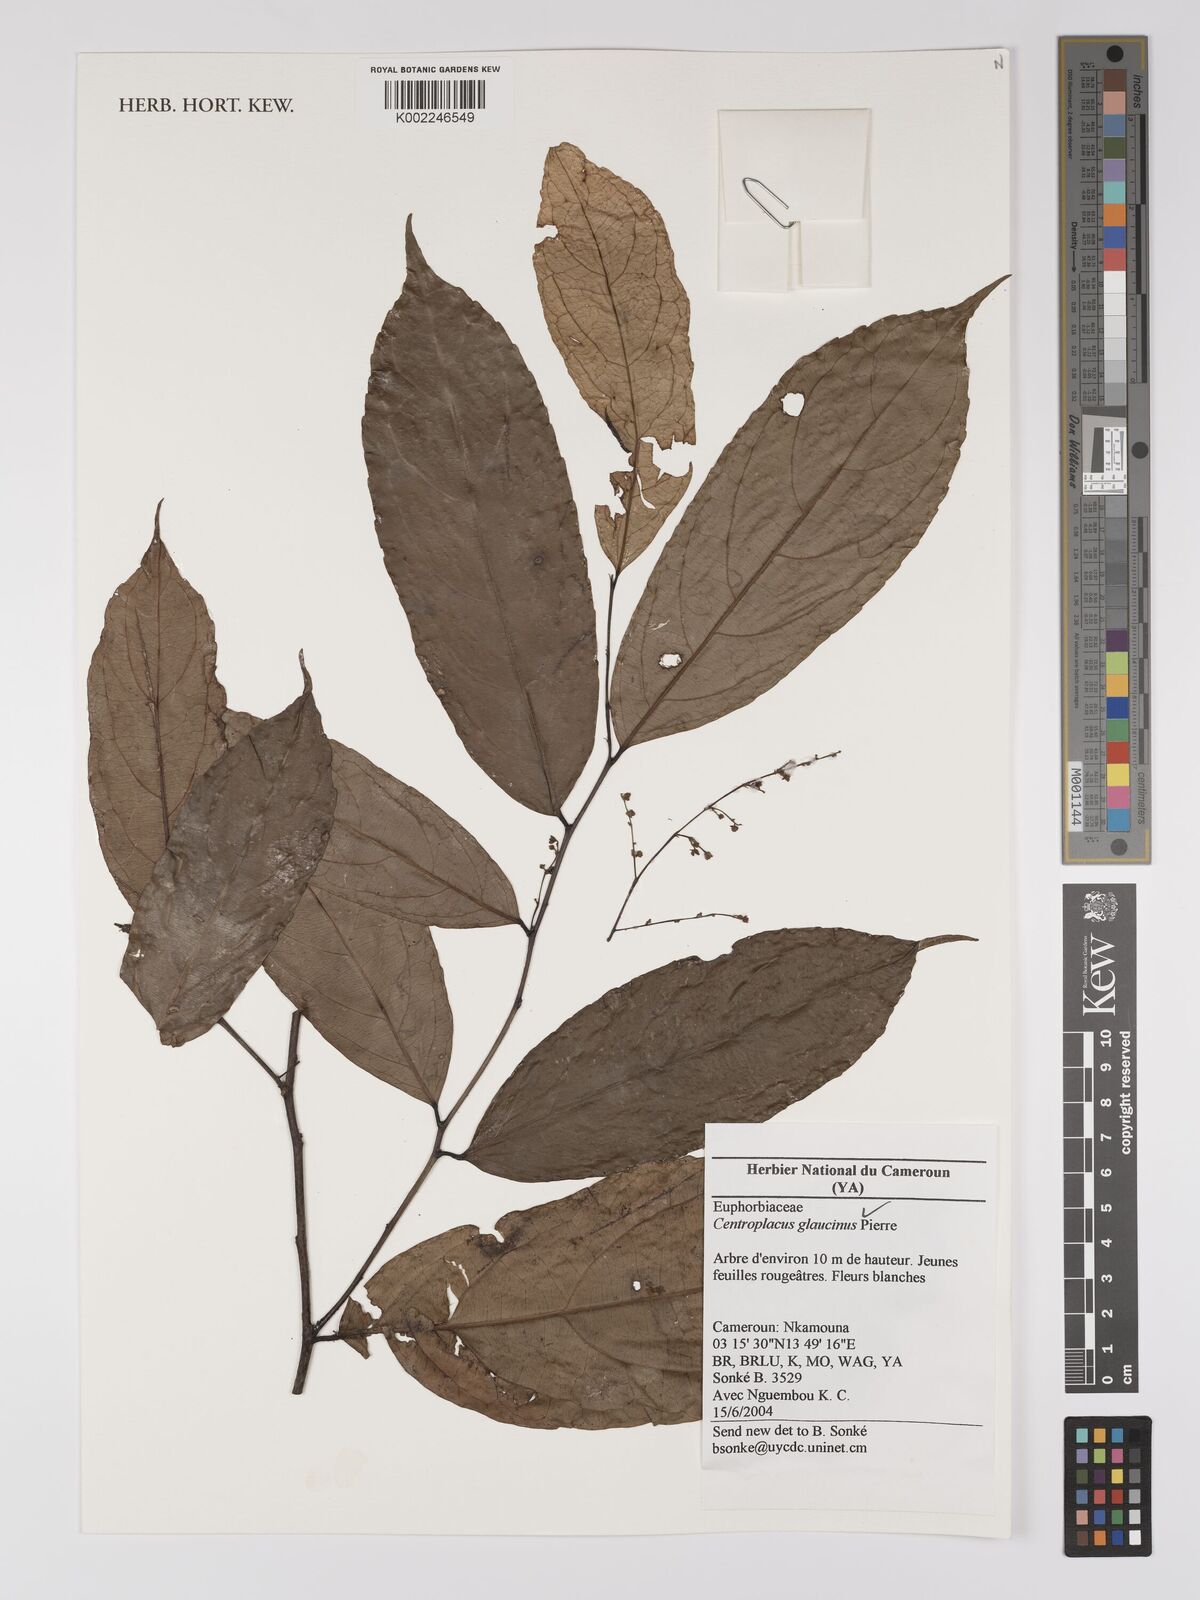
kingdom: Plantae
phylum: Tracheophyta
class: Magnoliopsida
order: Malpighiales
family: Centroplacaceae
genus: Centroplacus
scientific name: Centroplacus glaucinus
